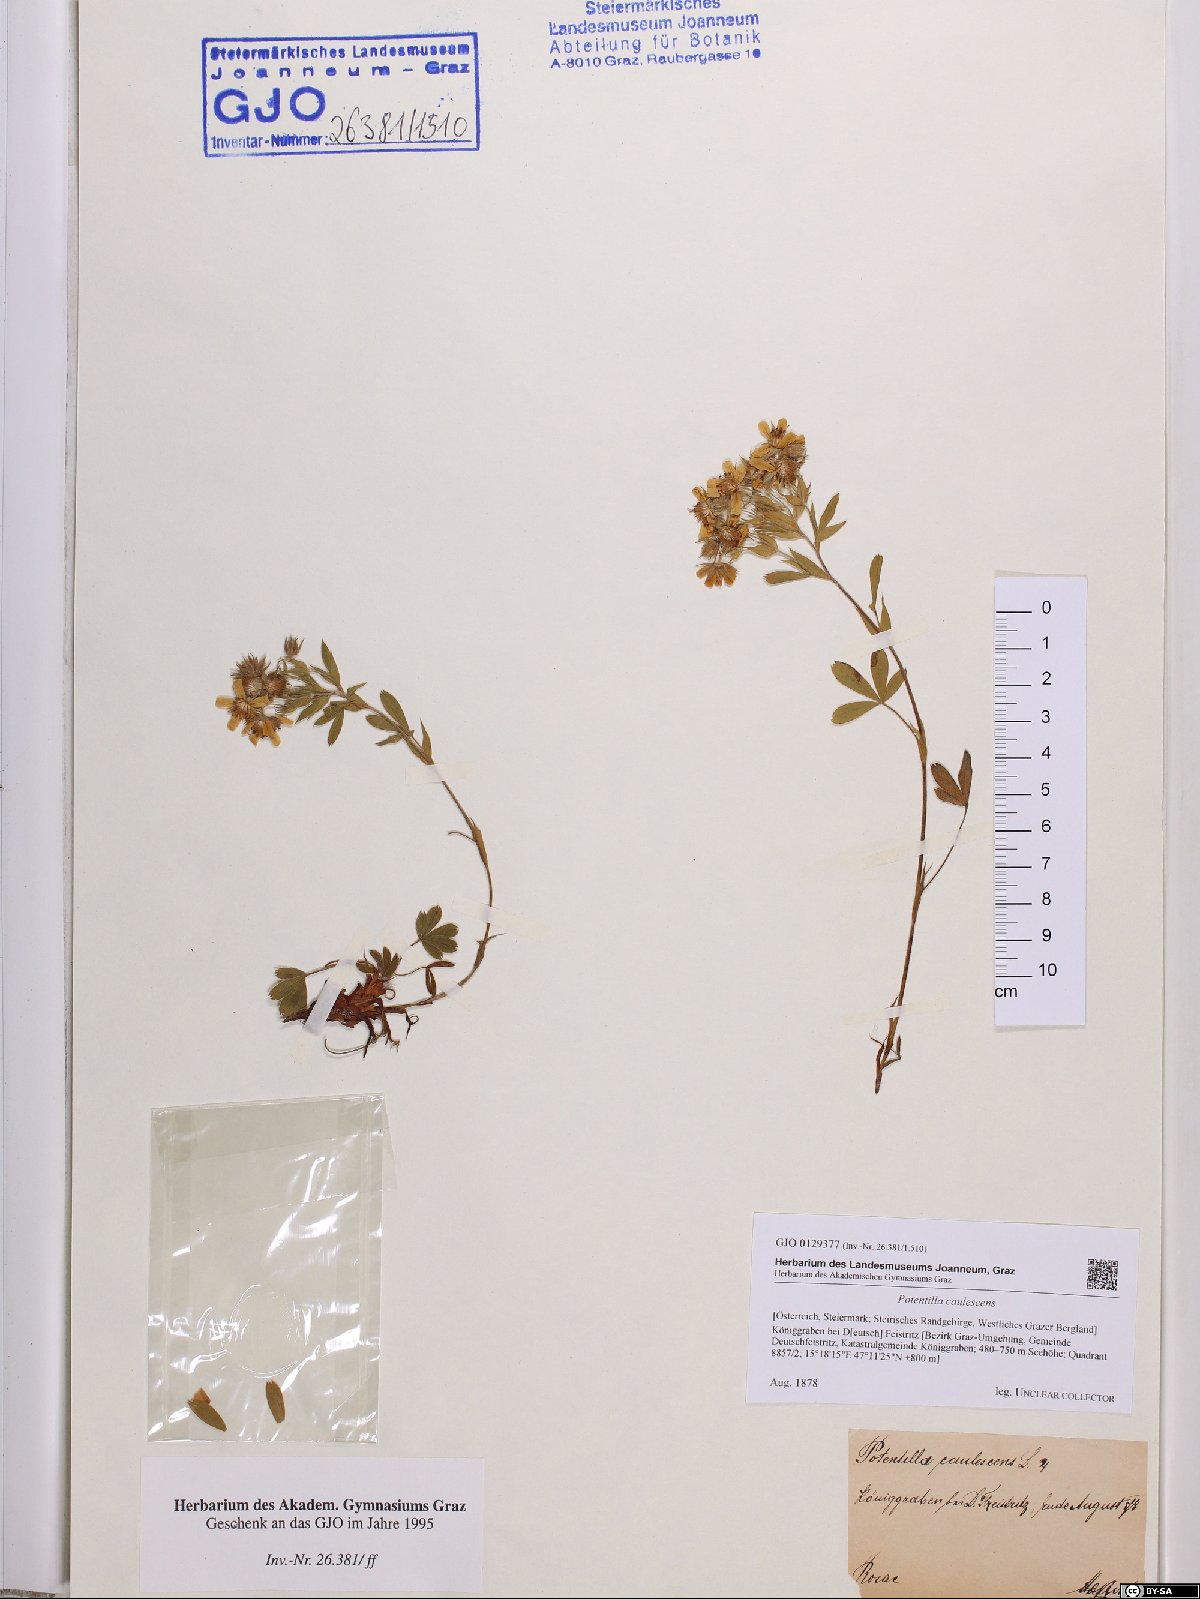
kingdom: Plantae
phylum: Tracheophyta
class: Magnoliopsida
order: Rosales
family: Rosaceae
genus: Potentilla
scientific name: Potentilla caulescens
